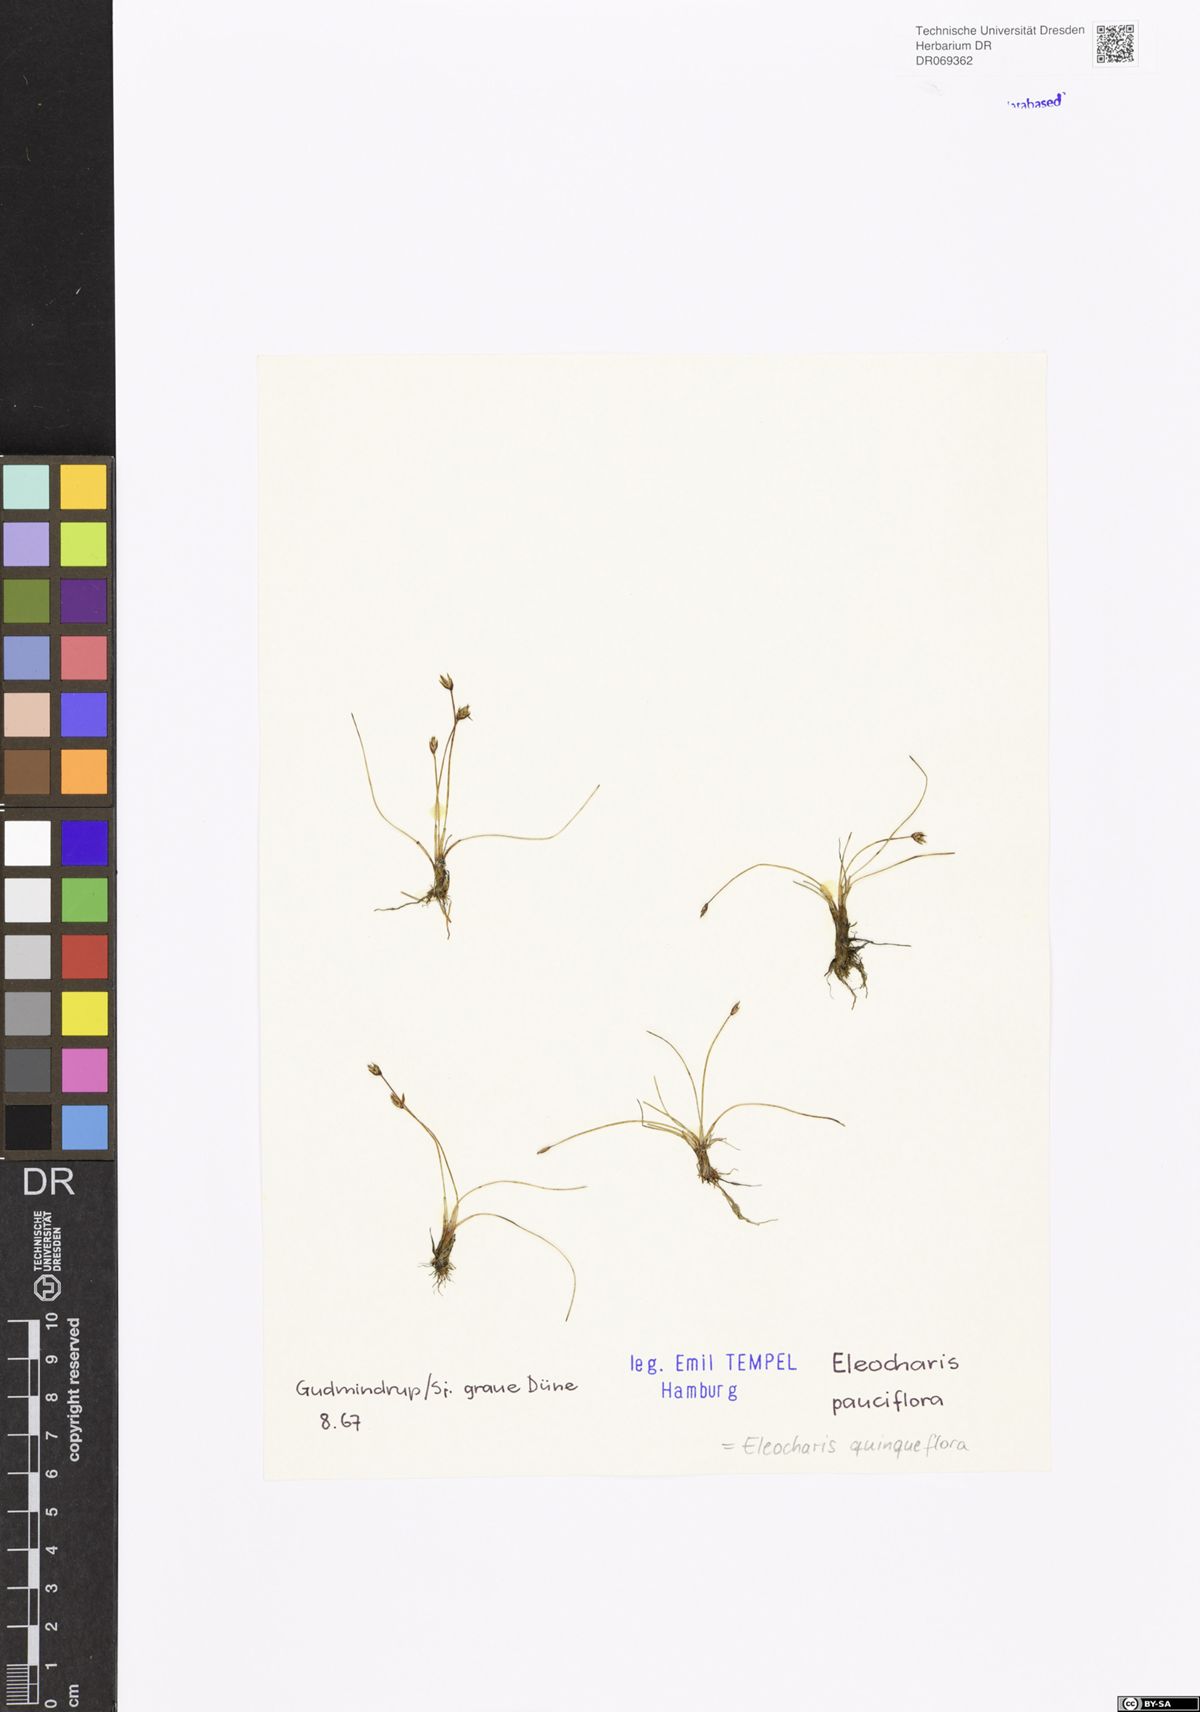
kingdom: Plantae
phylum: Tracheophyta
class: Liliopsida
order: Poales
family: Cyperaceae
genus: Eleocharis
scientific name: Eleocharis quinqueflora
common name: Few-flowered spike-rush
